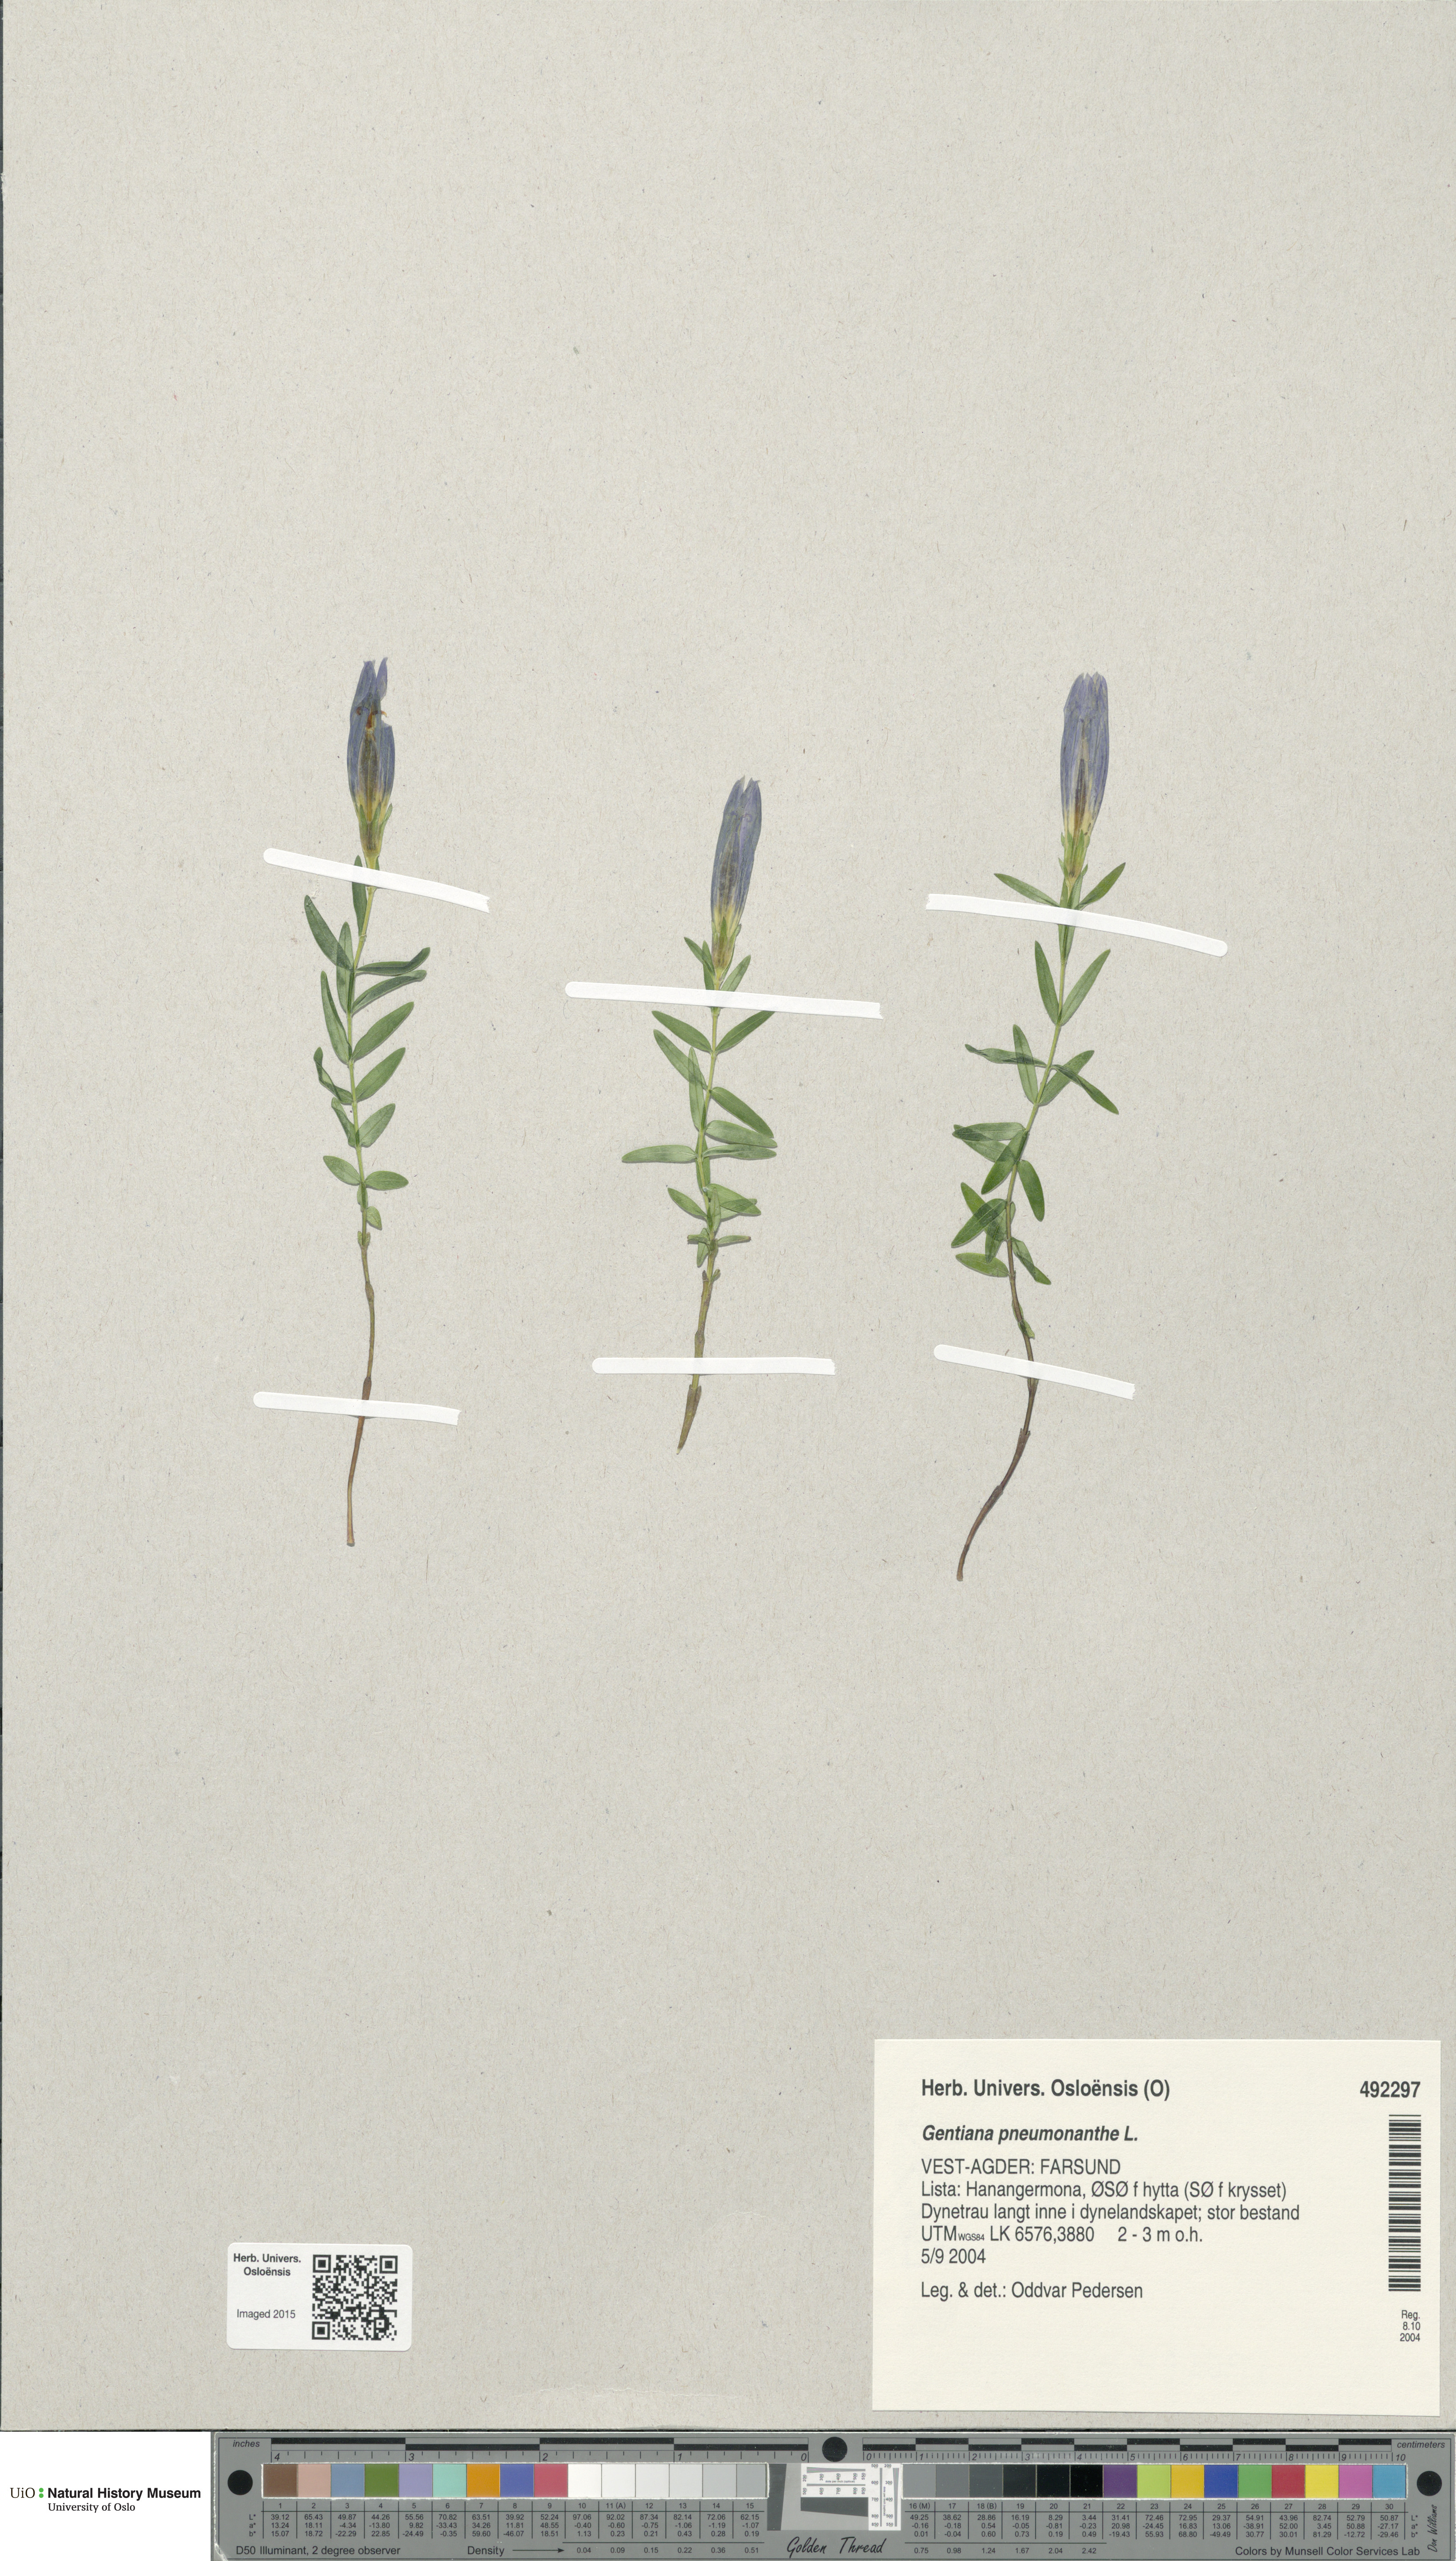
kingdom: Plantae
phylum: Tracheophyta
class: Magnoliopsida
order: Gentianales
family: Gentianaceae
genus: Gentiana
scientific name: Gentiana pneumonanthe
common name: Marsh gentian
